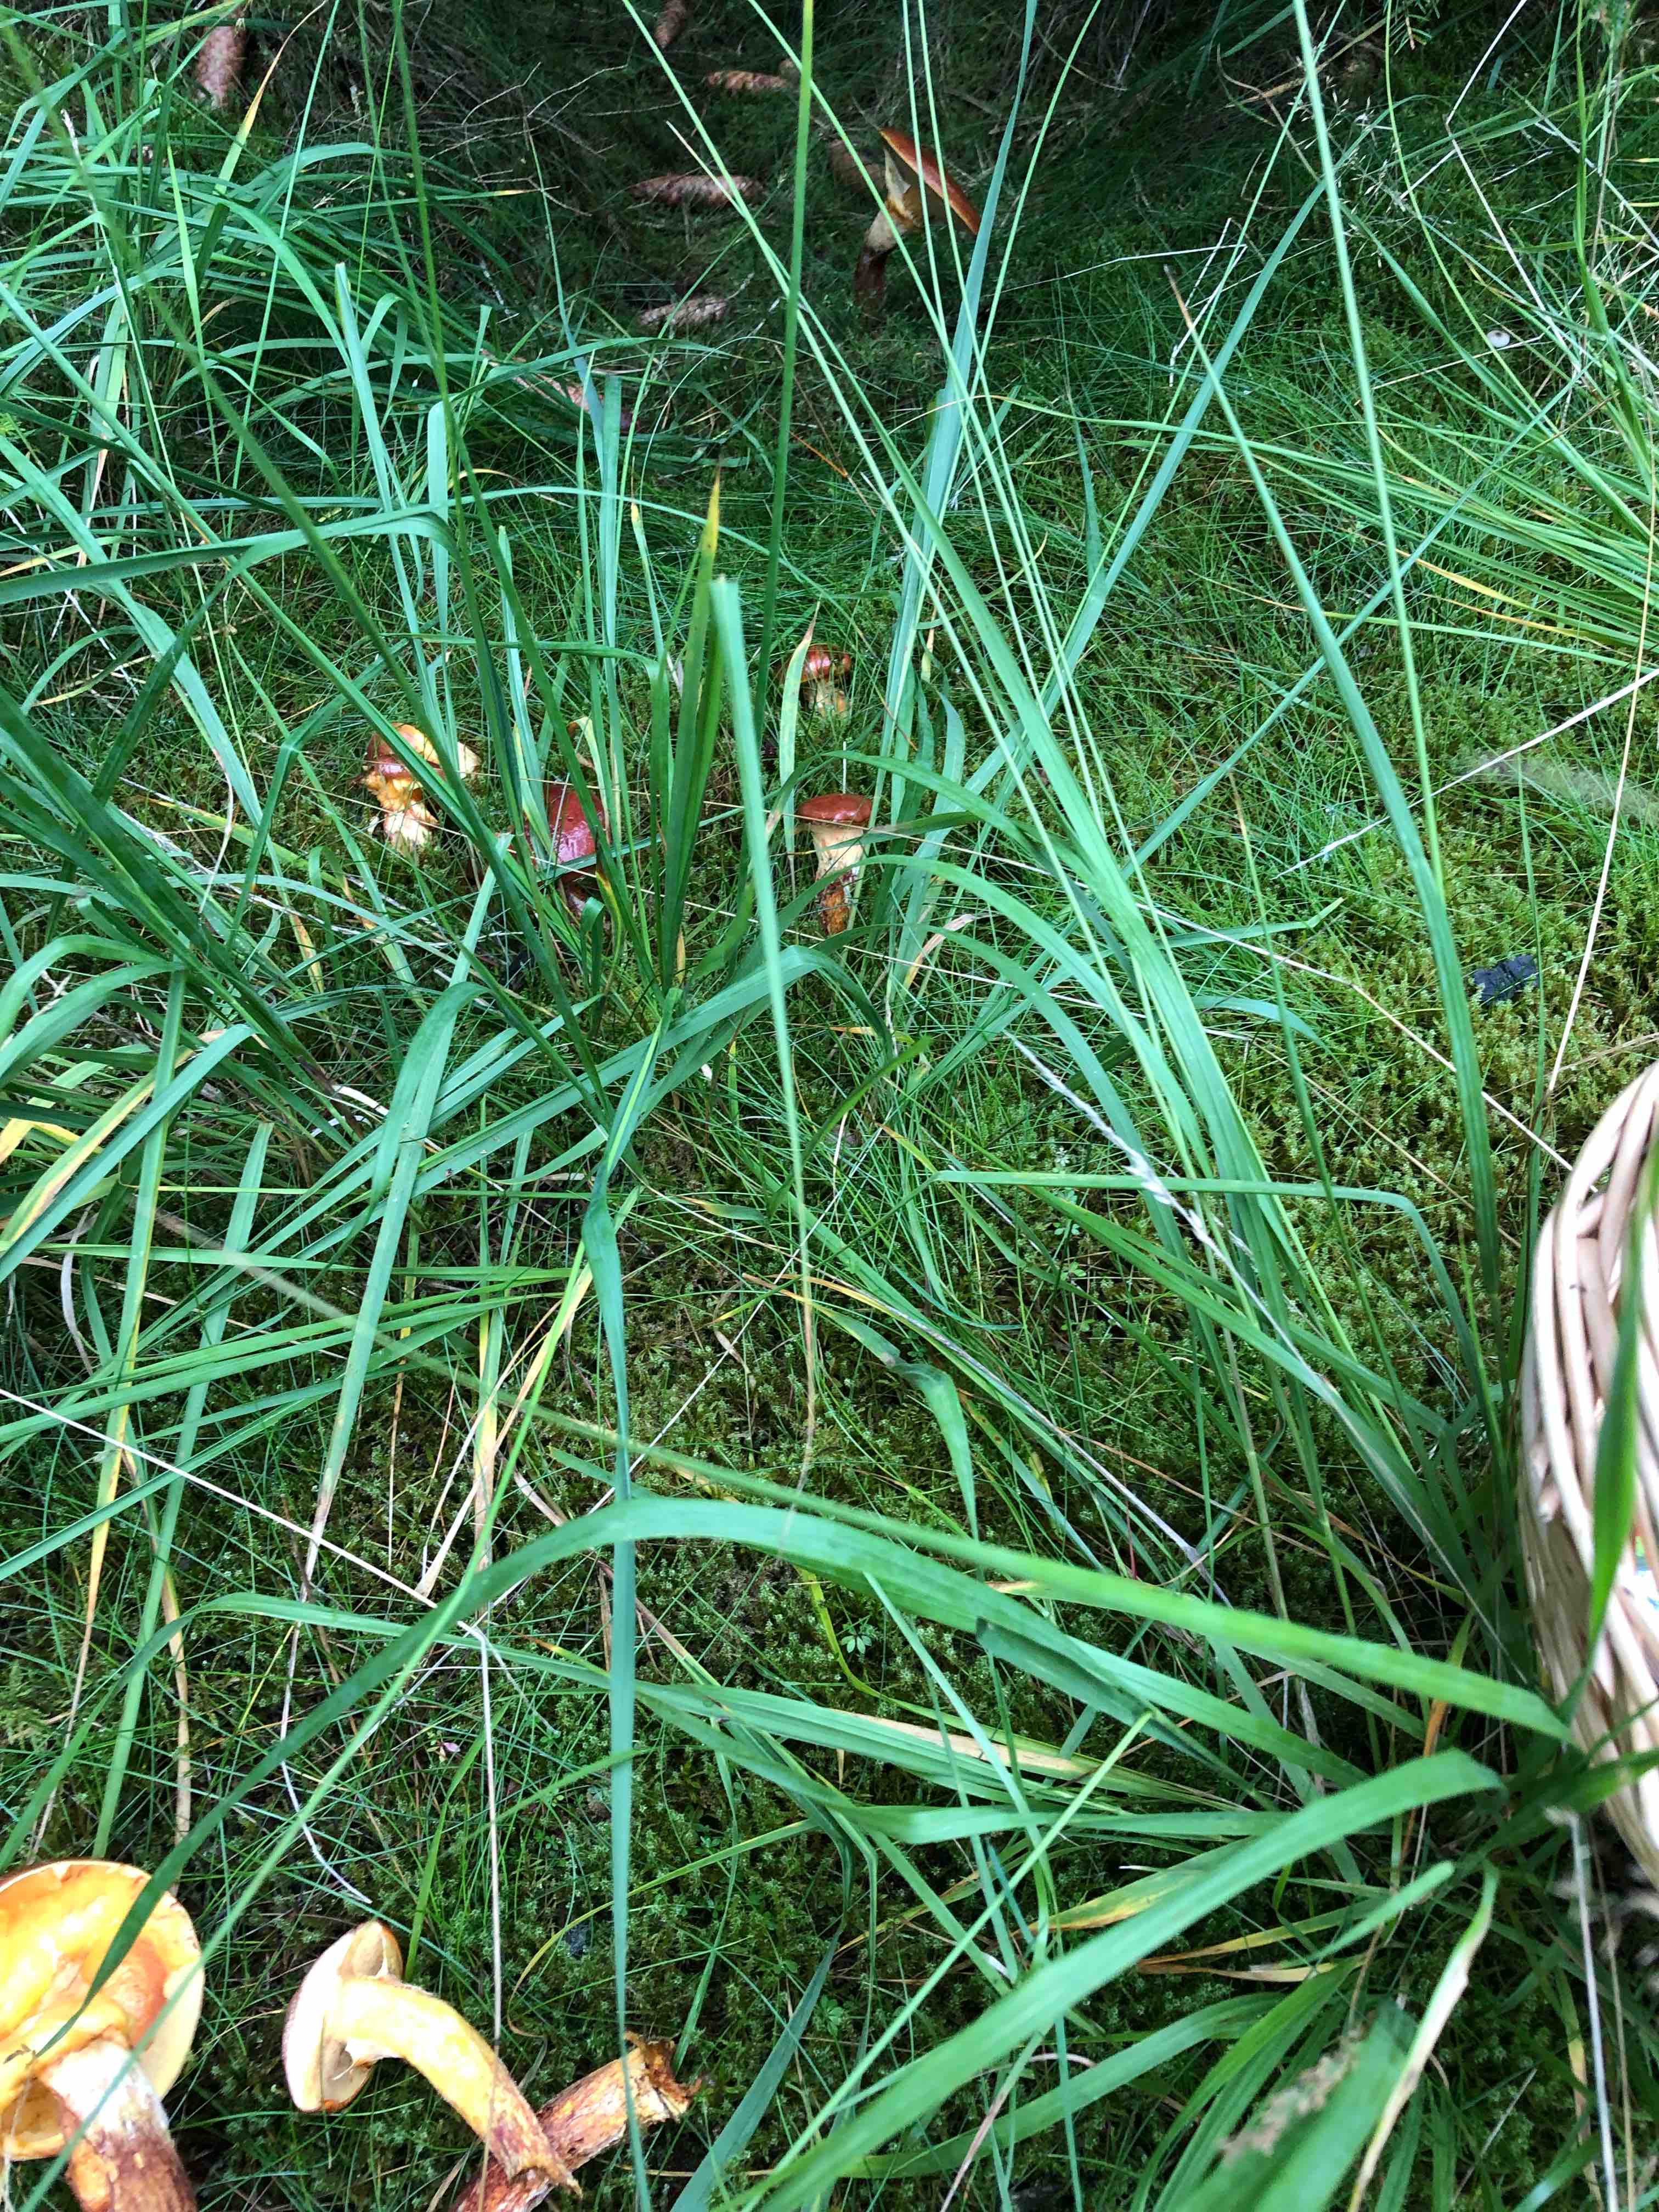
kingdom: Fungi
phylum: Basidiomycota
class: Agaricomycetes
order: Boletales
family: Suillaceae
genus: Suillus
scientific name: Suillus grevillei
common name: lærke-slimrørhat
